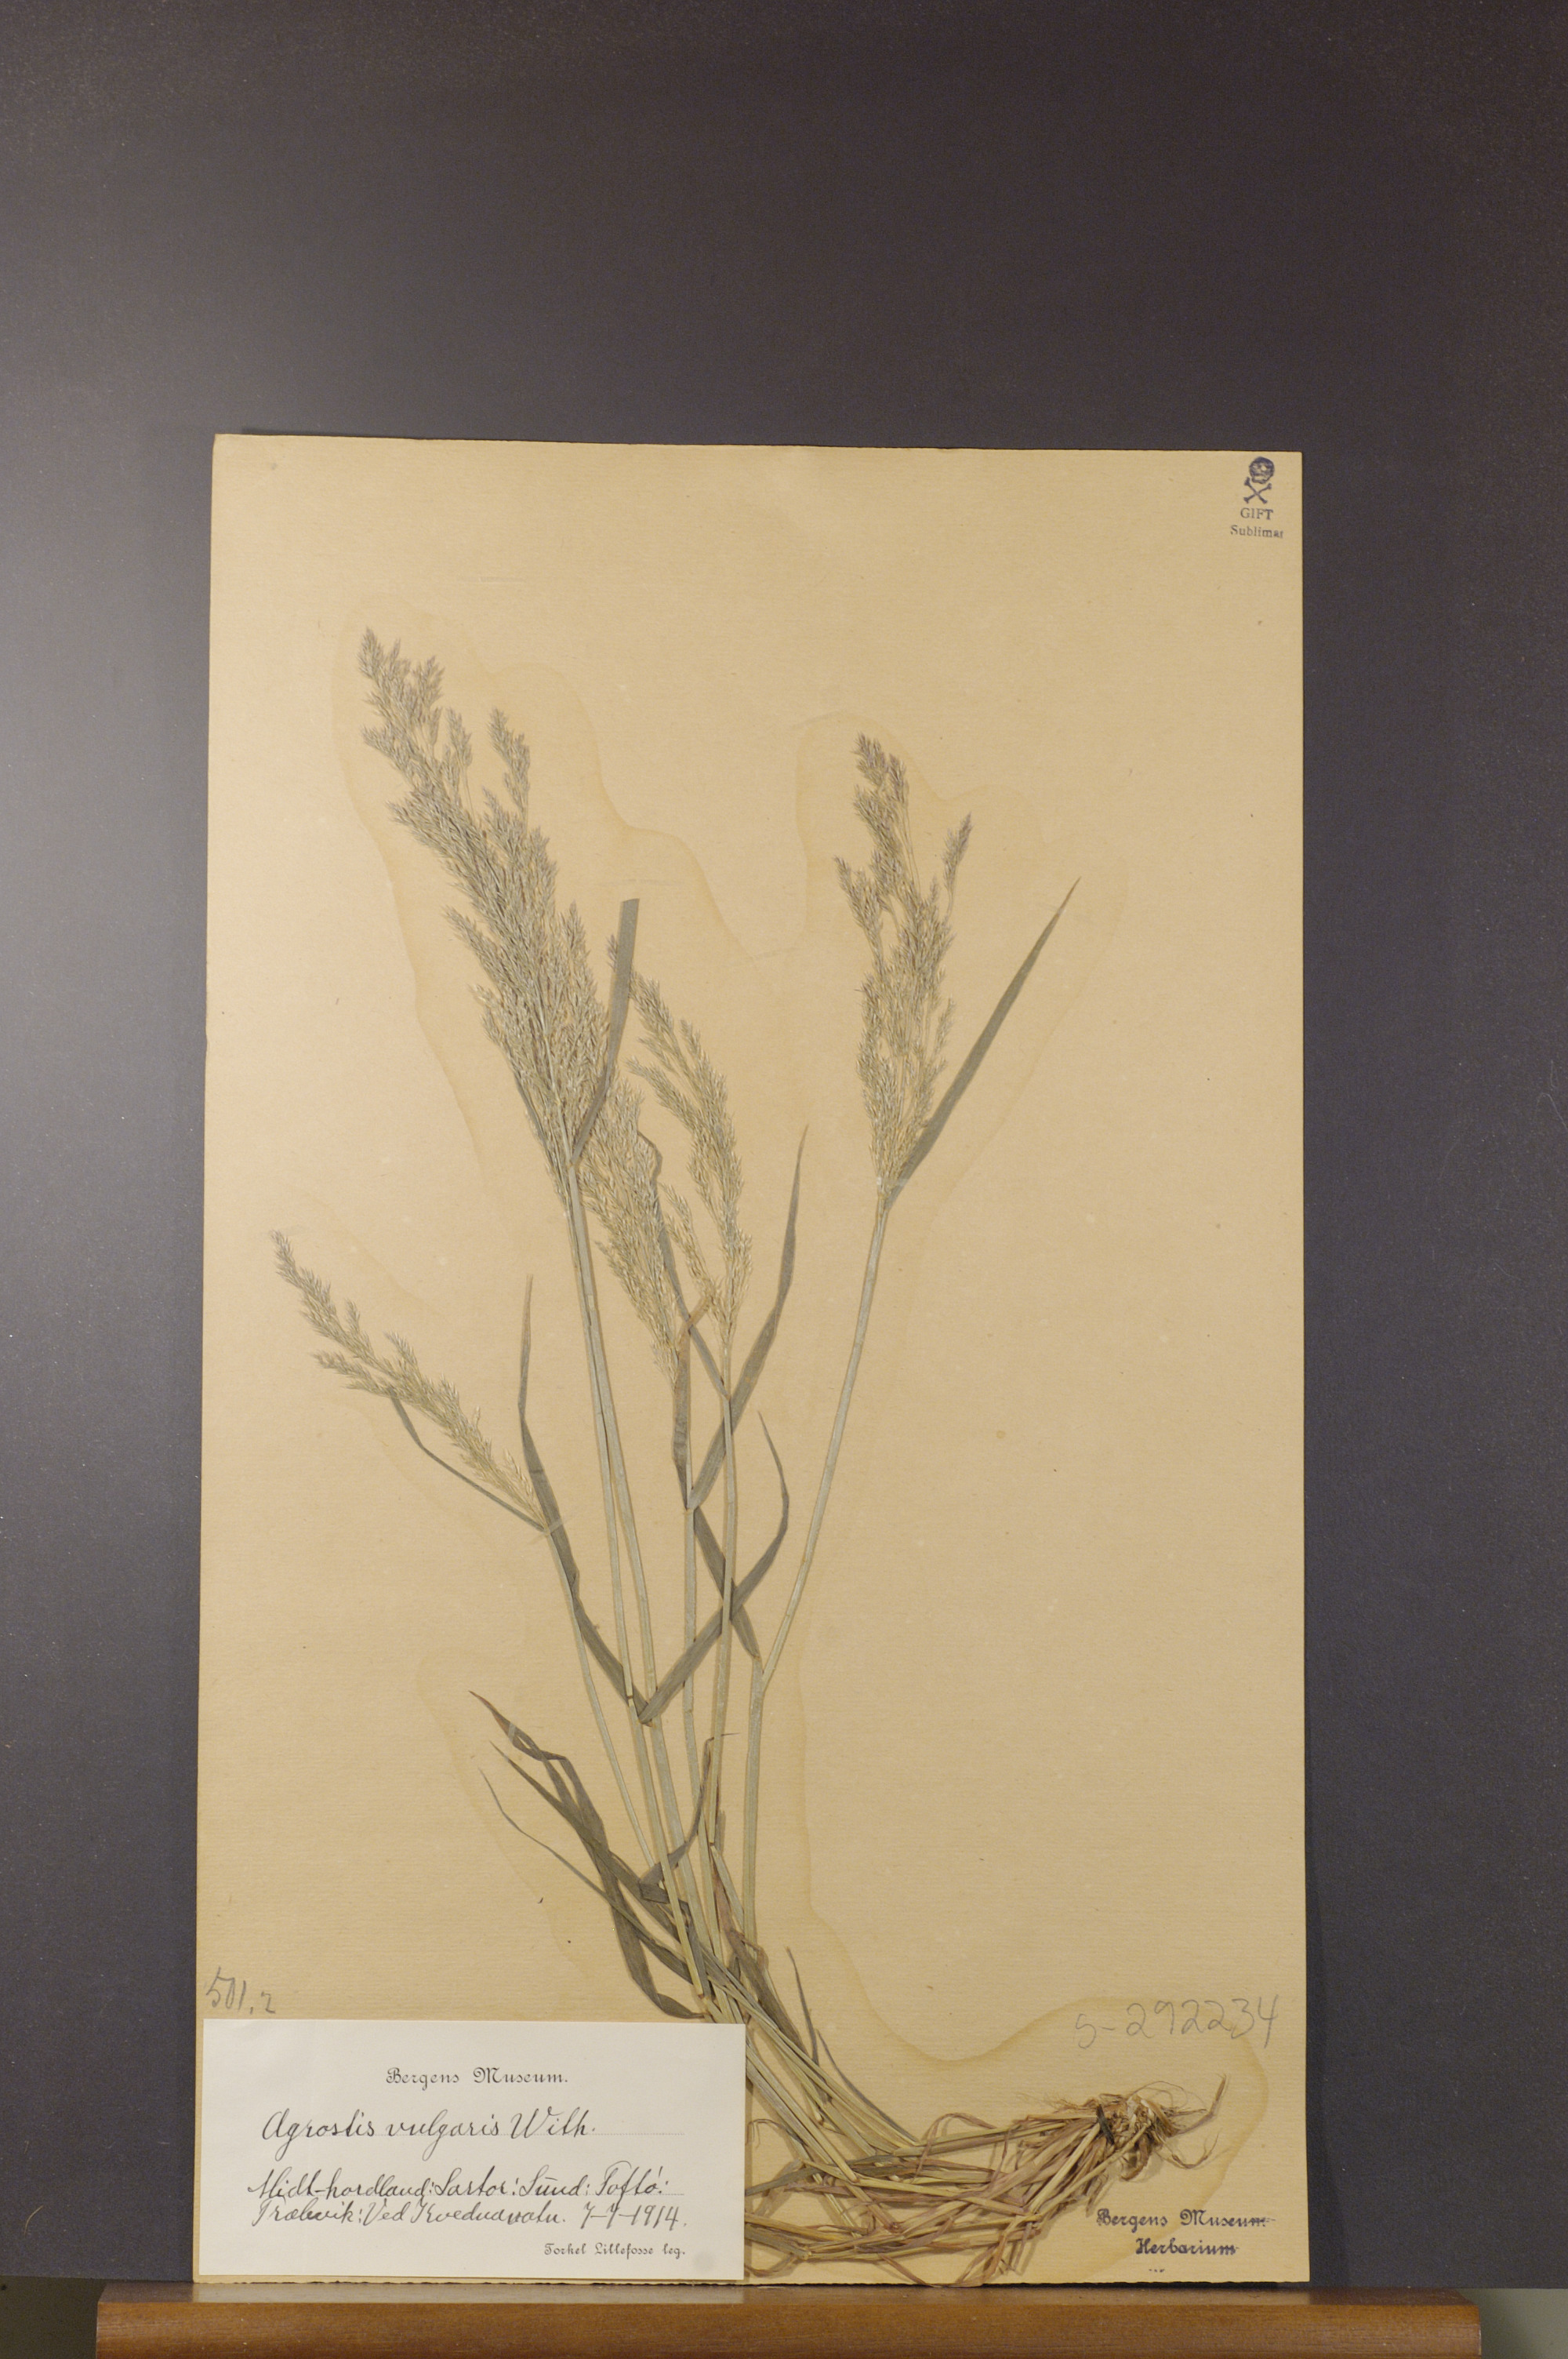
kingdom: Plantae
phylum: Tracheophyta
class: Liliopsida
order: Poales
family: Poaceae
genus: Agrostis
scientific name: Agrostis capillaris
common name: Colonial bentgrass
